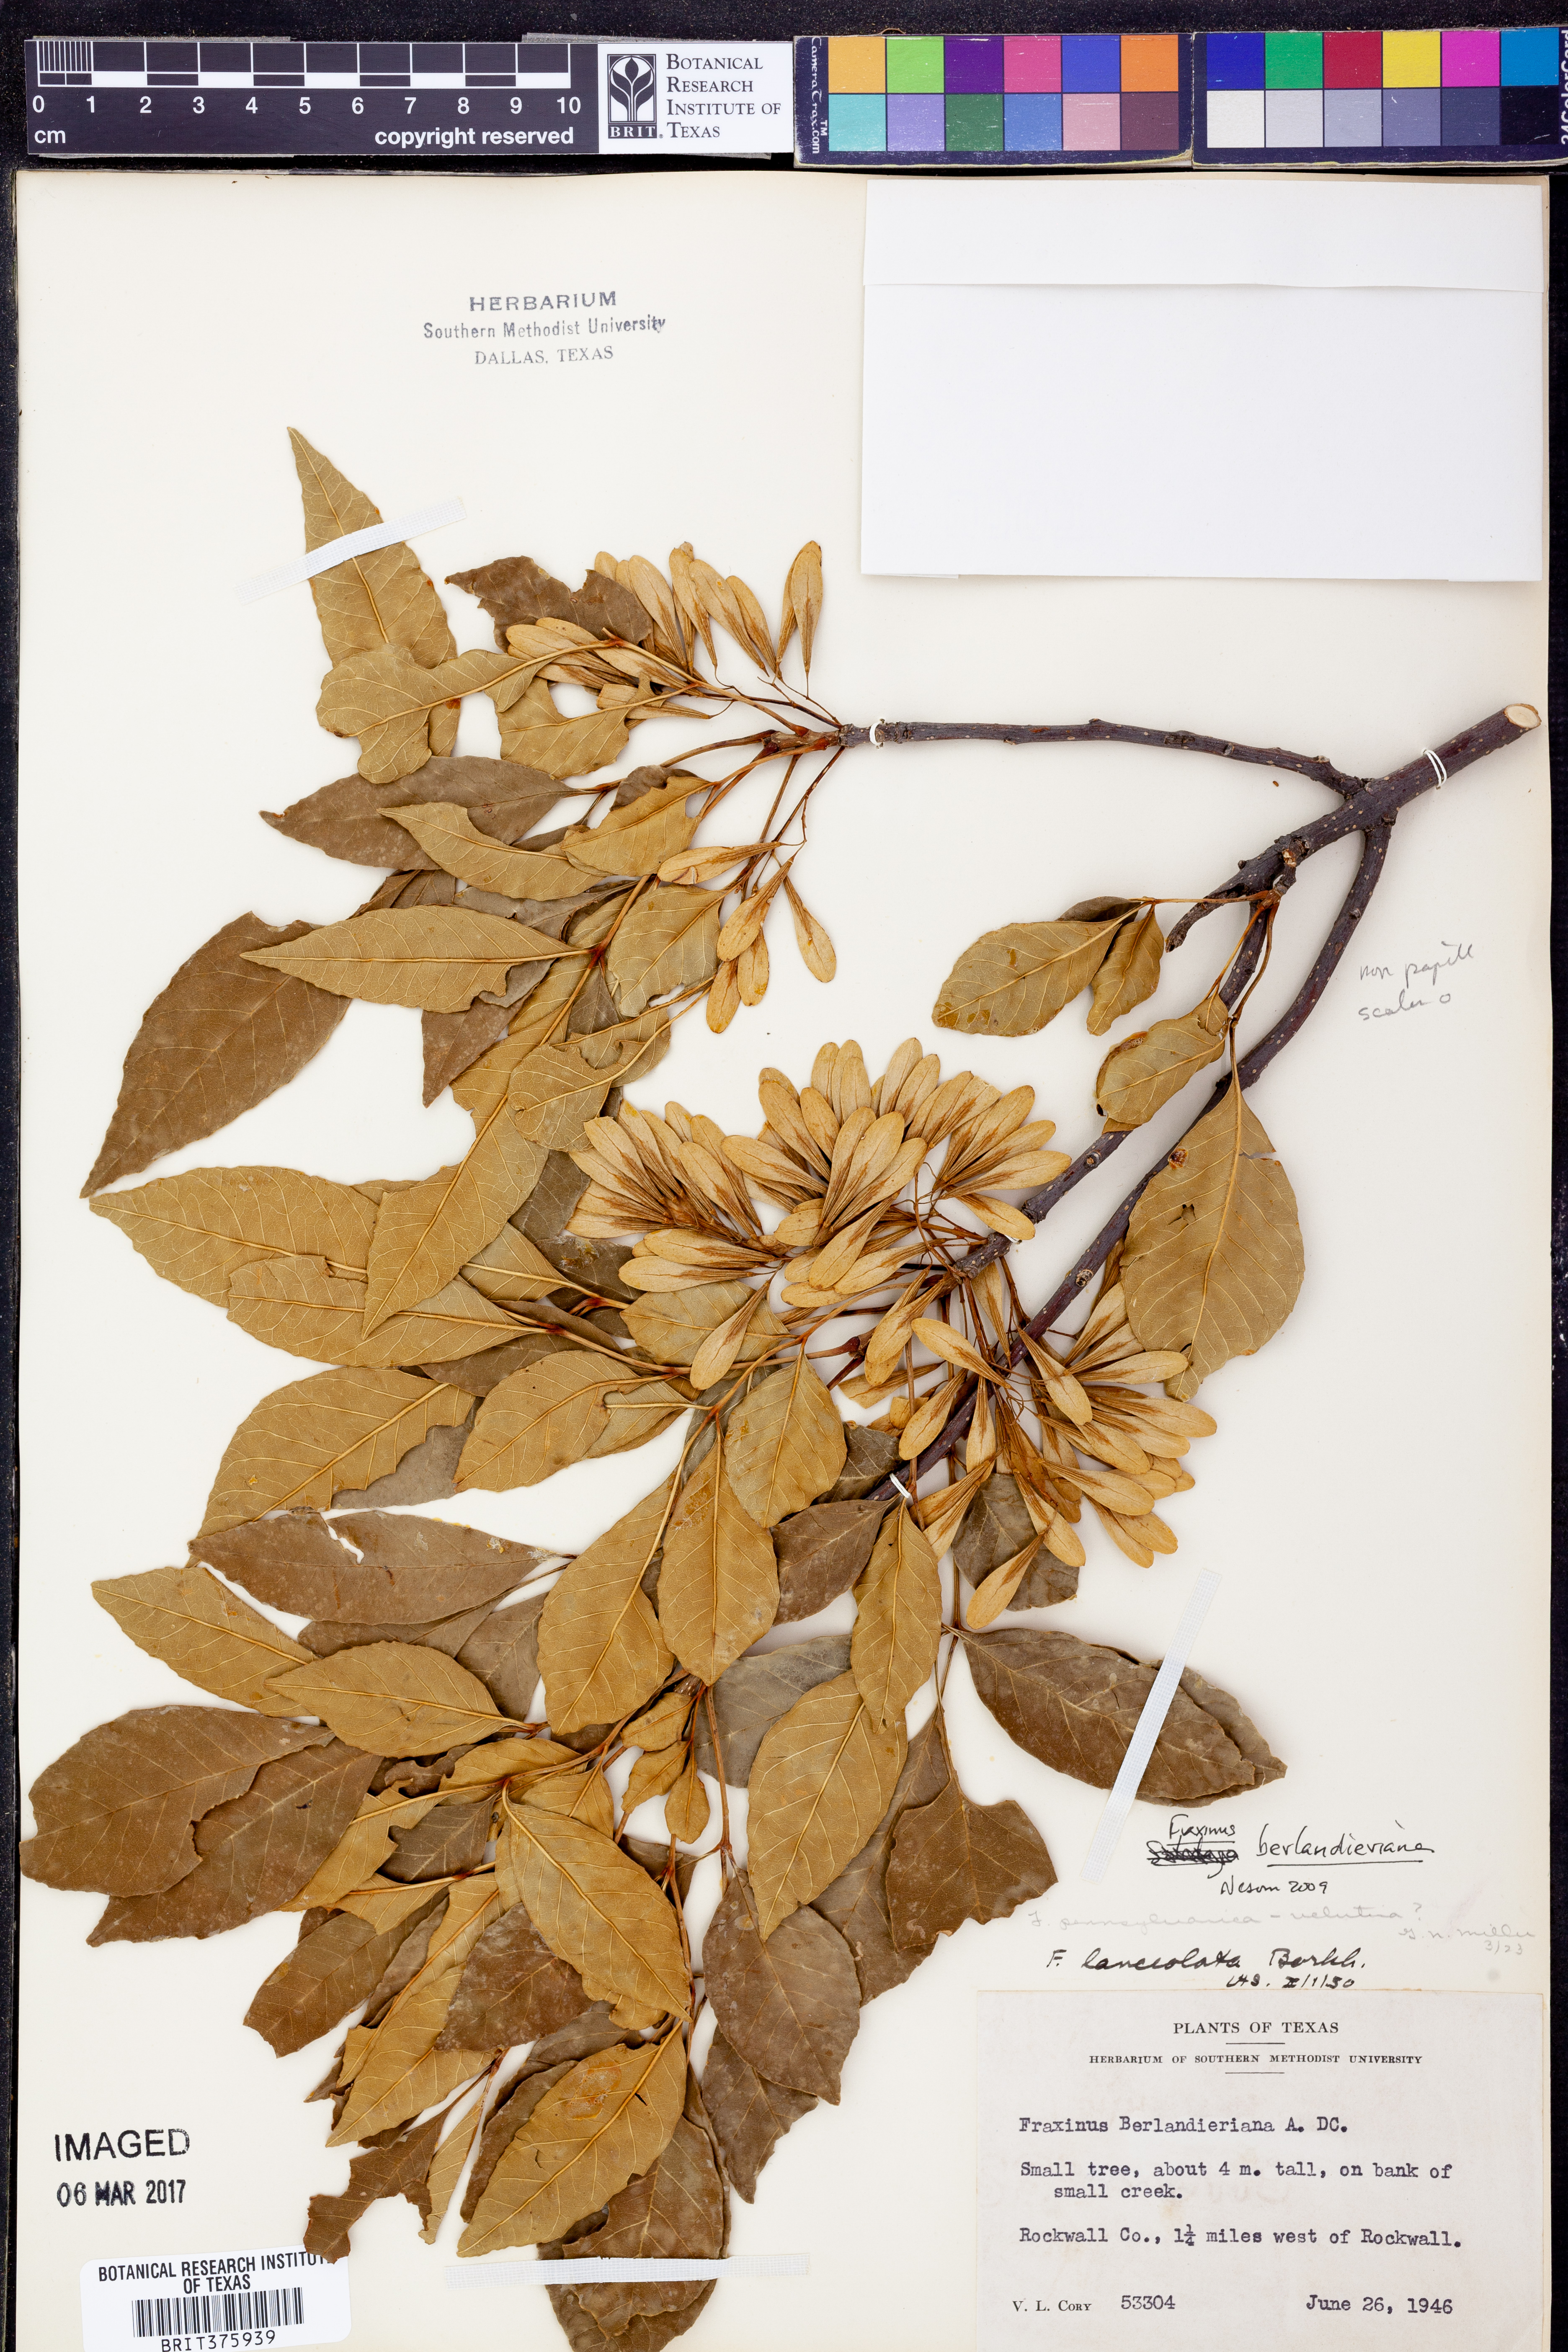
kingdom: Plantae
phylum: Tracheophyta
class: Magnoliopsida
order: Lamiales
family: Oleaceae
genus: Fraxinus
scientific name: Fraxinus berlandieriana
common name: Berlandier ash
